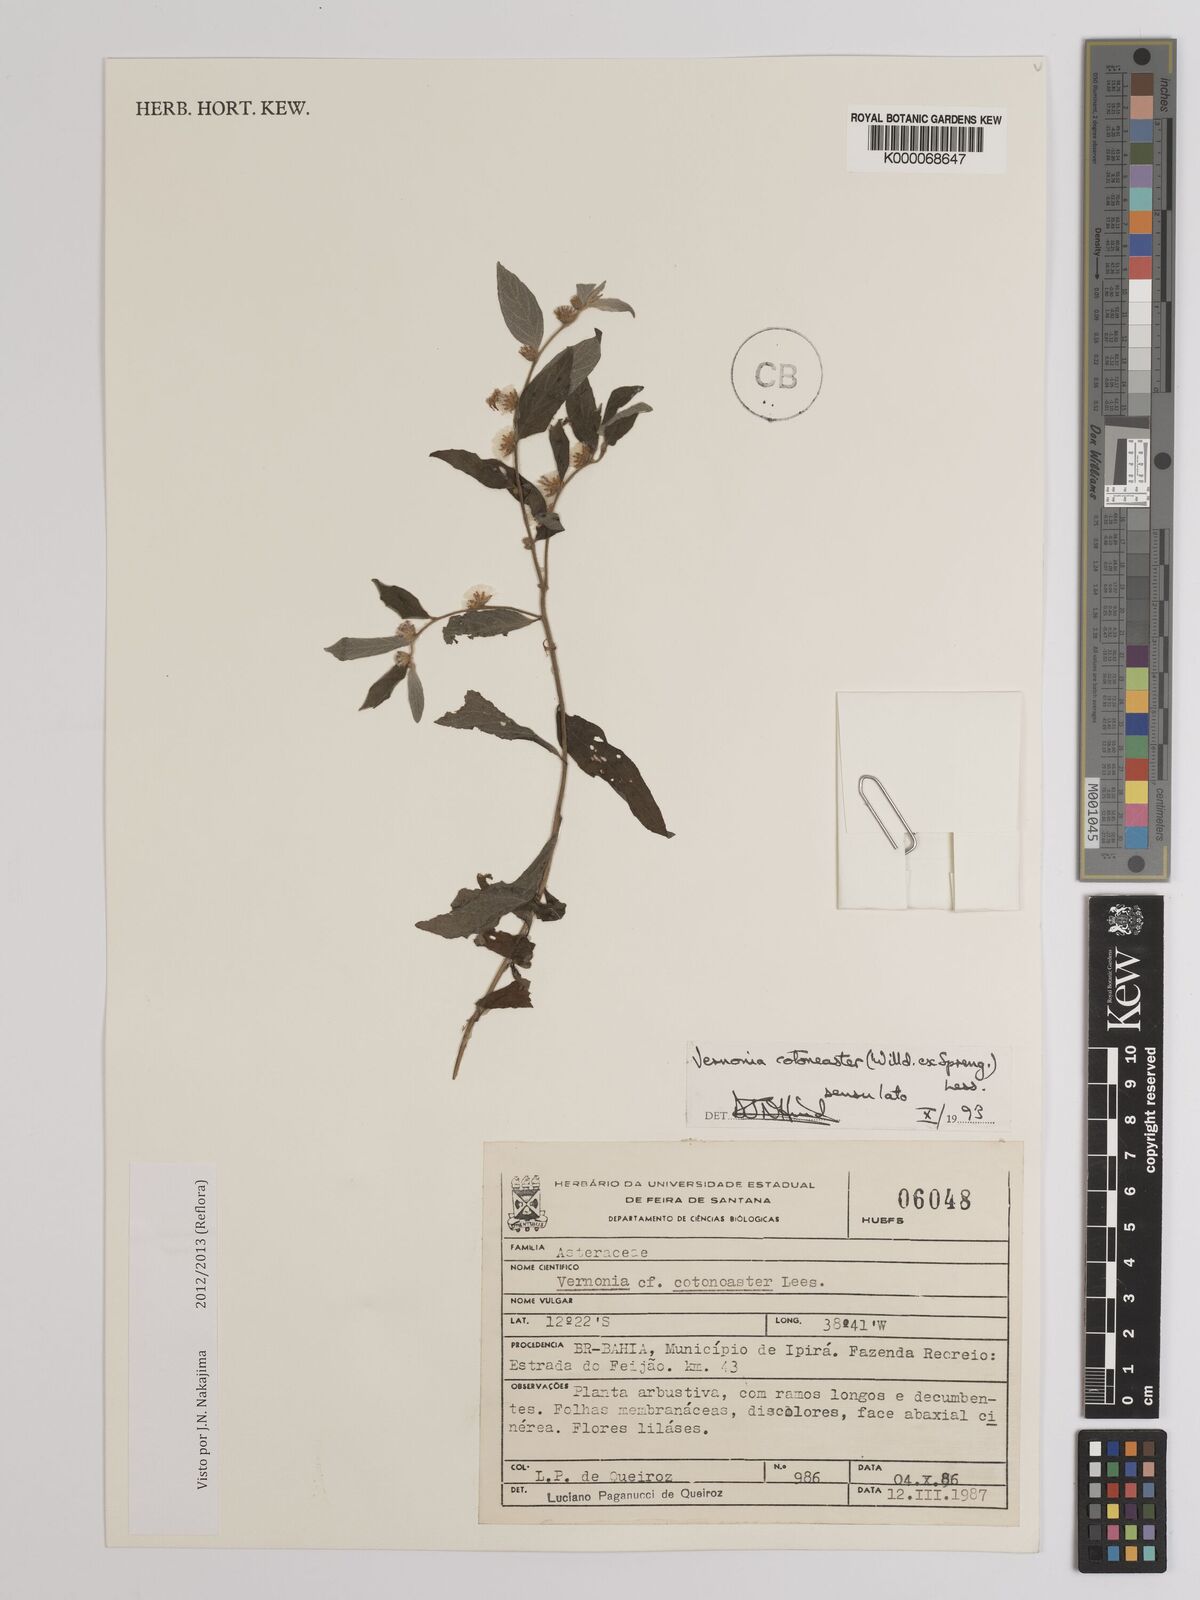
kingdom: Plantae
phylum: Tracheophyta
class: Magnoliopsida
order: Asterales
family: Asteraceae
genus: Lepidaploa
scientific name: Lepidaploa cotoneaster
